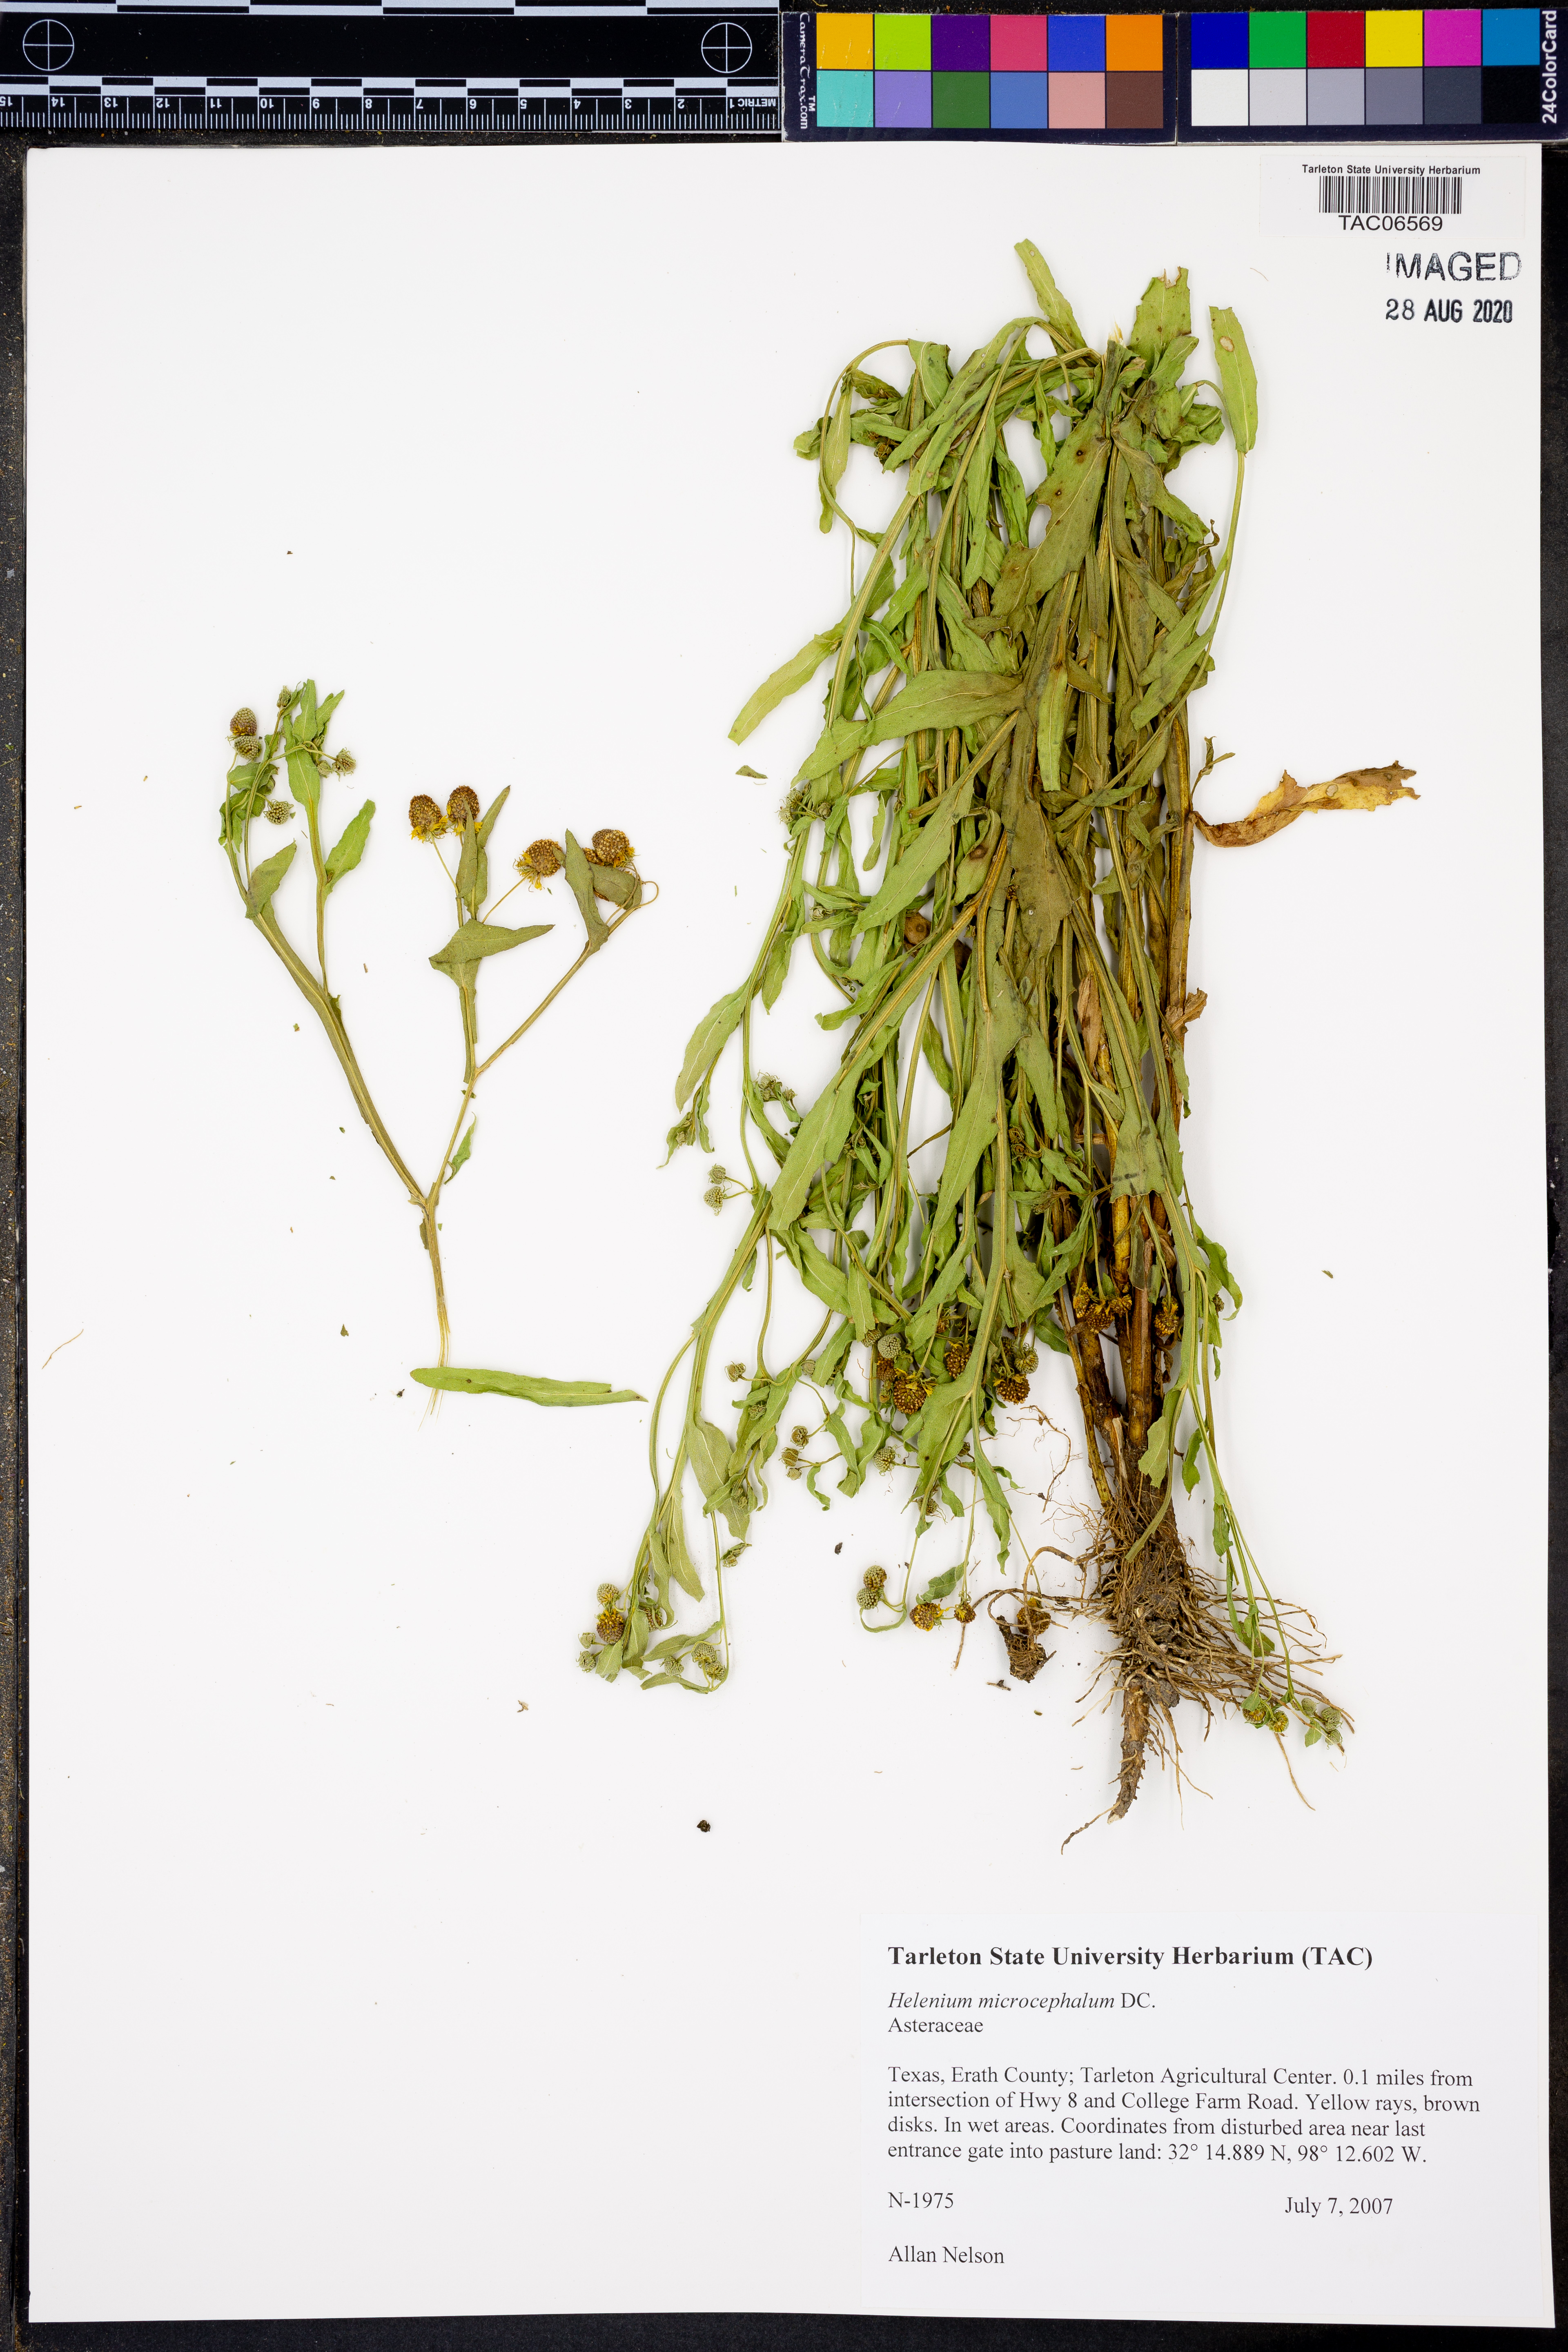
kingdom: Plantae
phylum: Tracheophyta
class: Magnoliopsida
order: Asterales
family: Asteraceae
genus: Helenium
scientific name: Helenium microcephalum
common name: Smallhead sneezeweed
